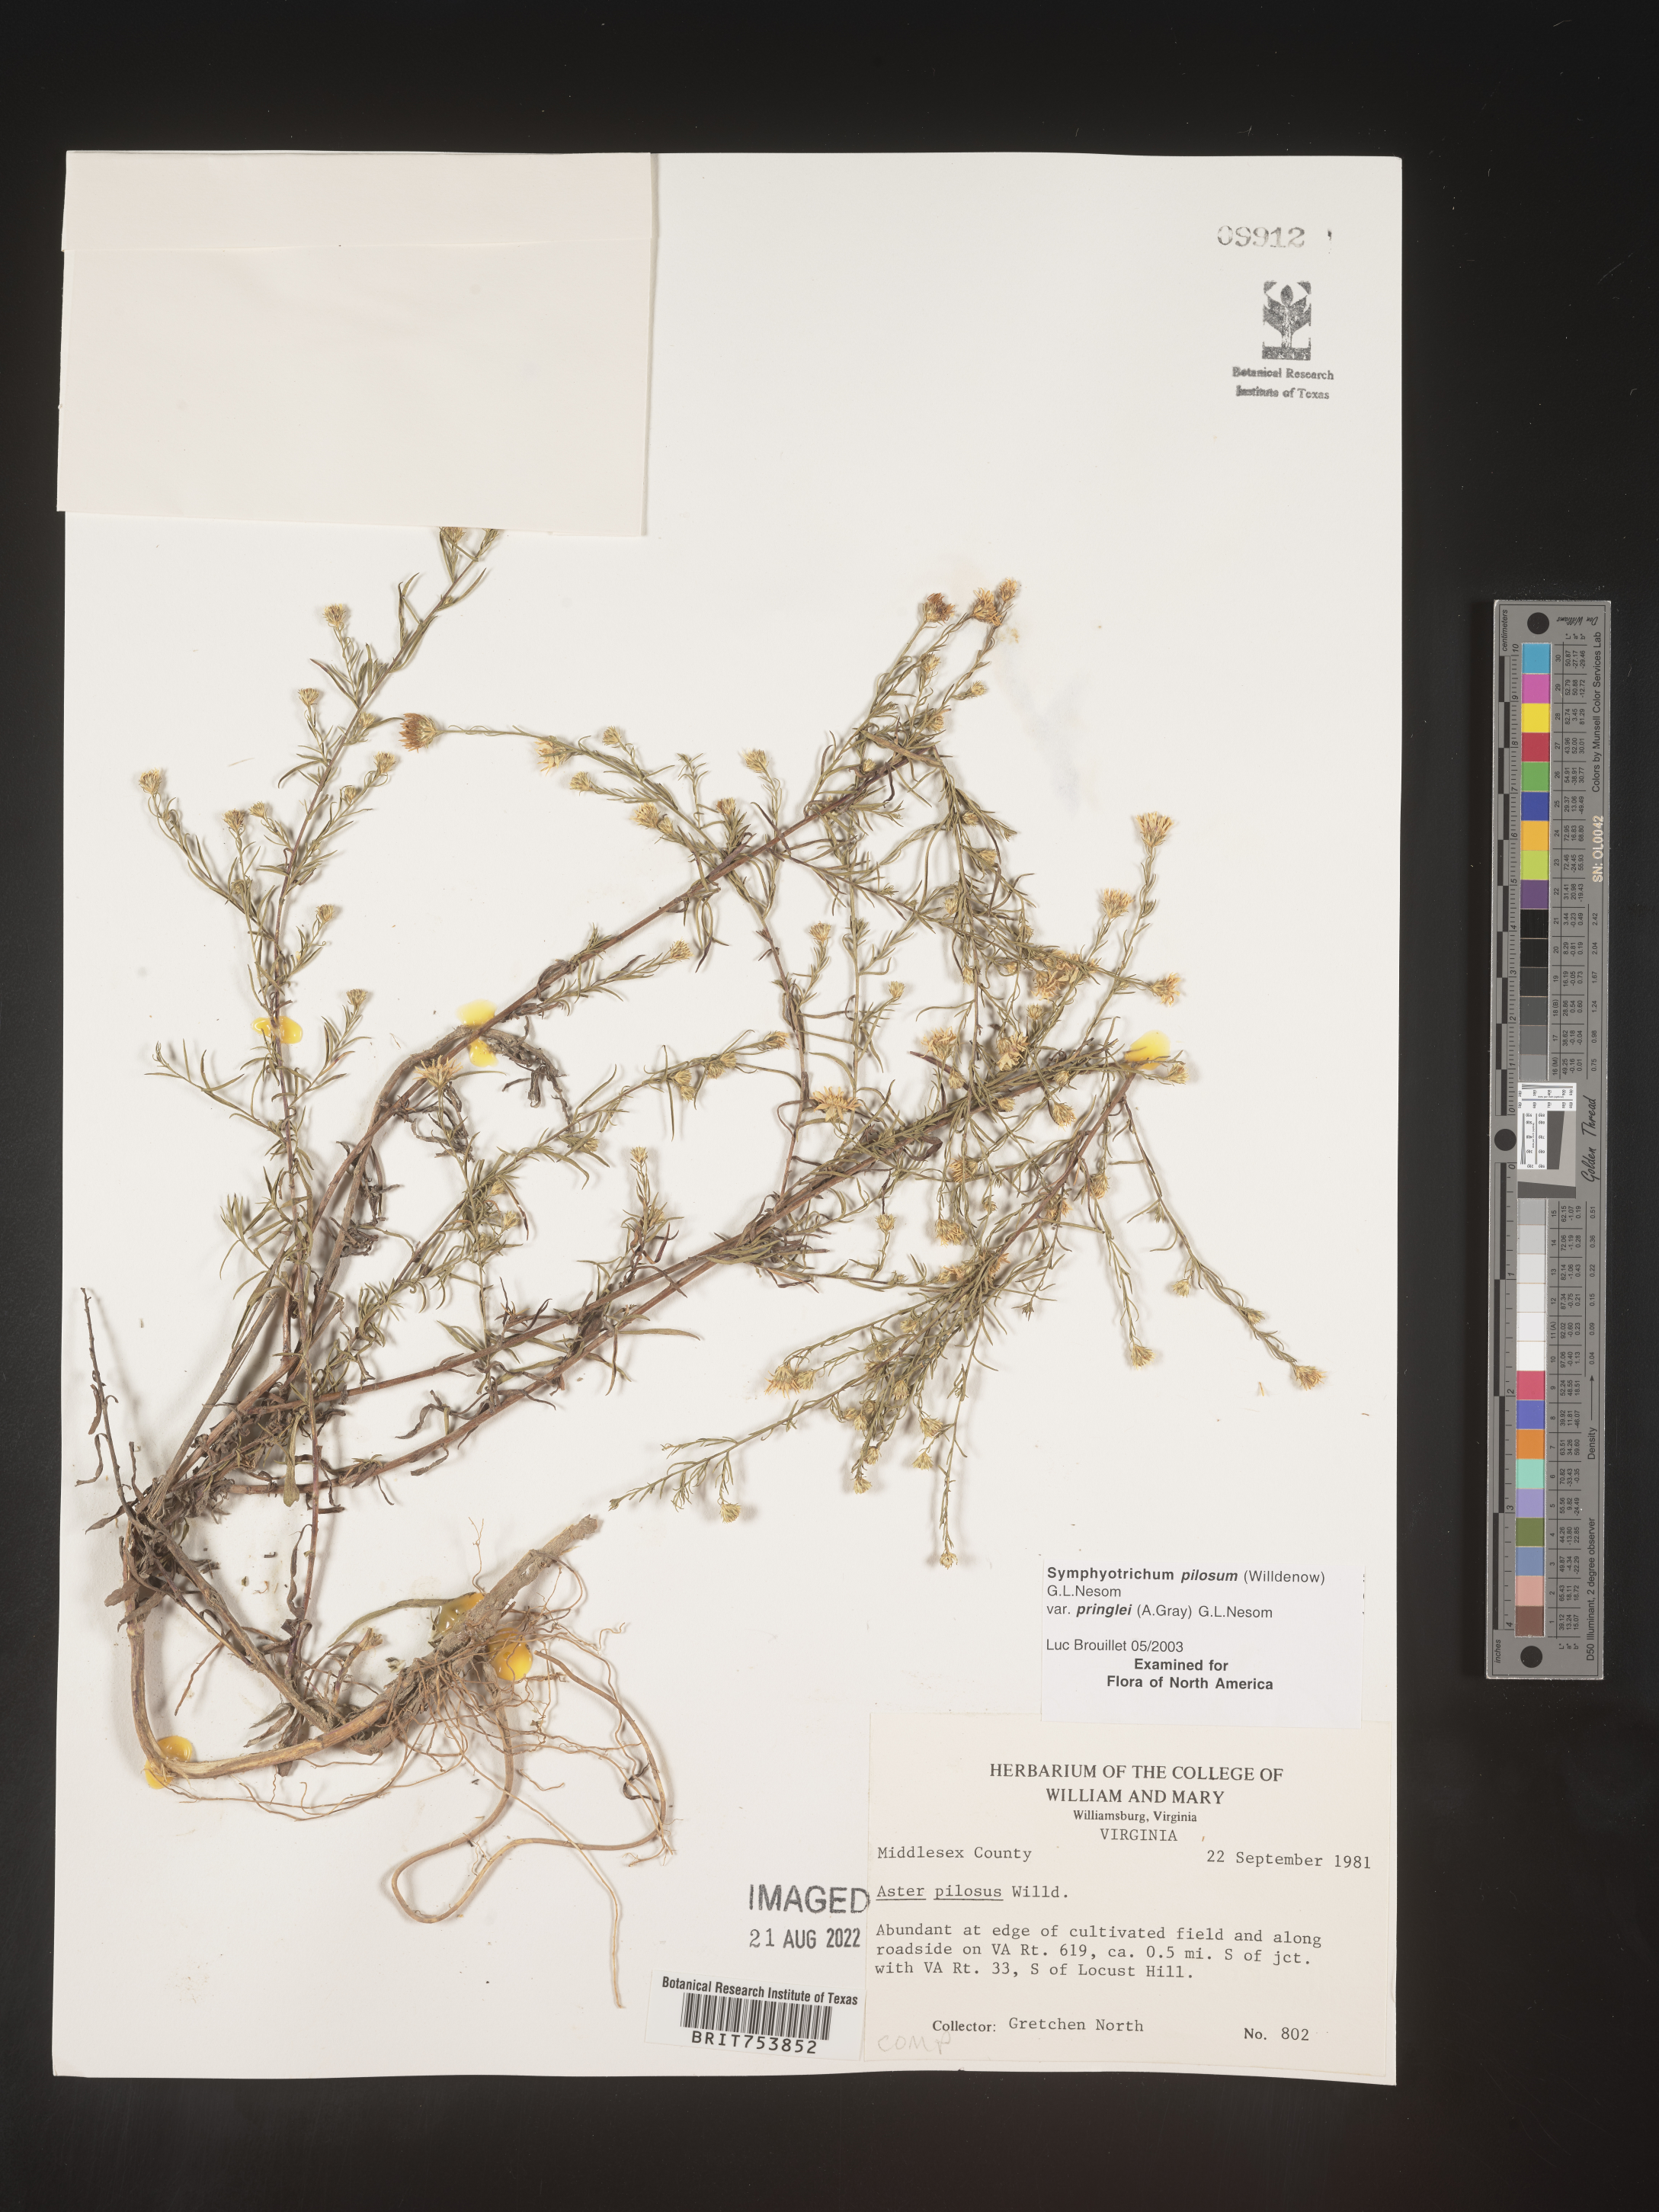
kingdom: Plantae
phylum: Tracheophyta
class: Magnoliopsida
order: Asterales
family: Asteraceae
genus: Symphyotrichum
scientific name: Symphyotrichum pilosum
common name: Awl aster
